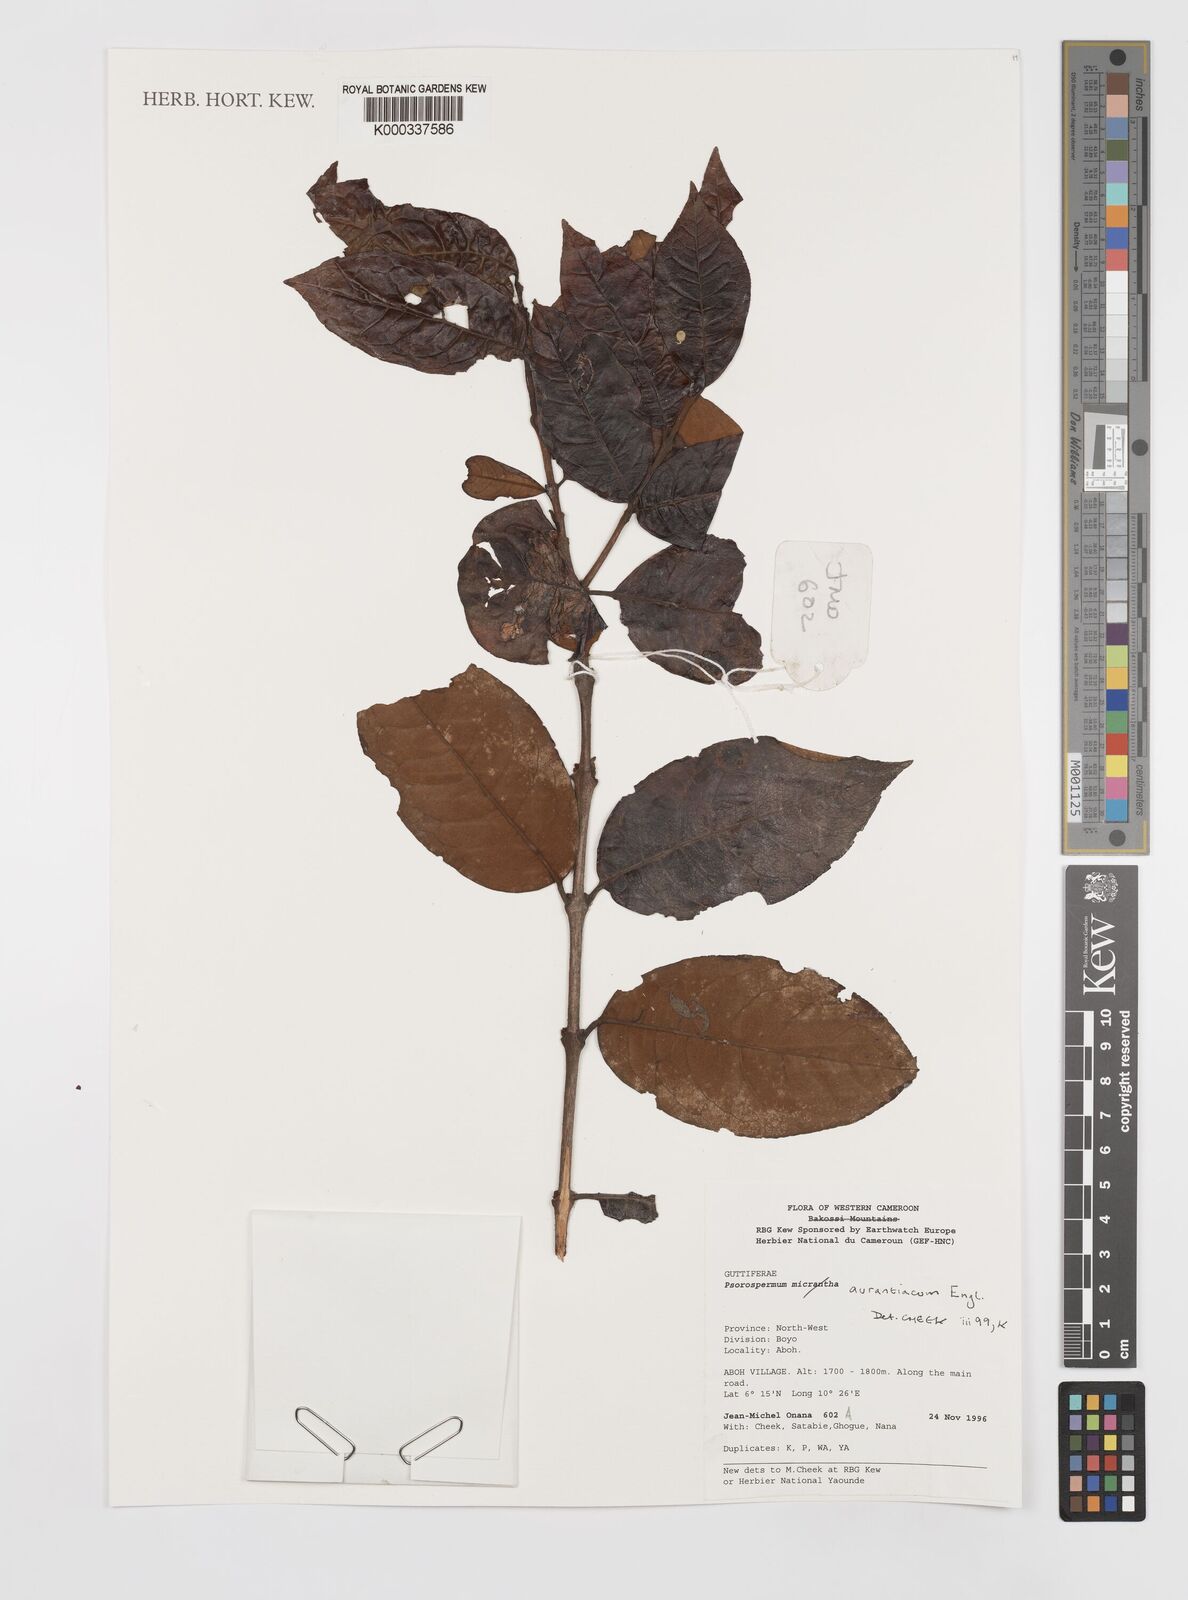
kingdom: Plantae
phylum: Tracheophyta
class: Magnoliopsida
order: Malpighiales
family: Hypericaceae
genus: Psorospermum
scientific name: Psorospermum aurantiacum
